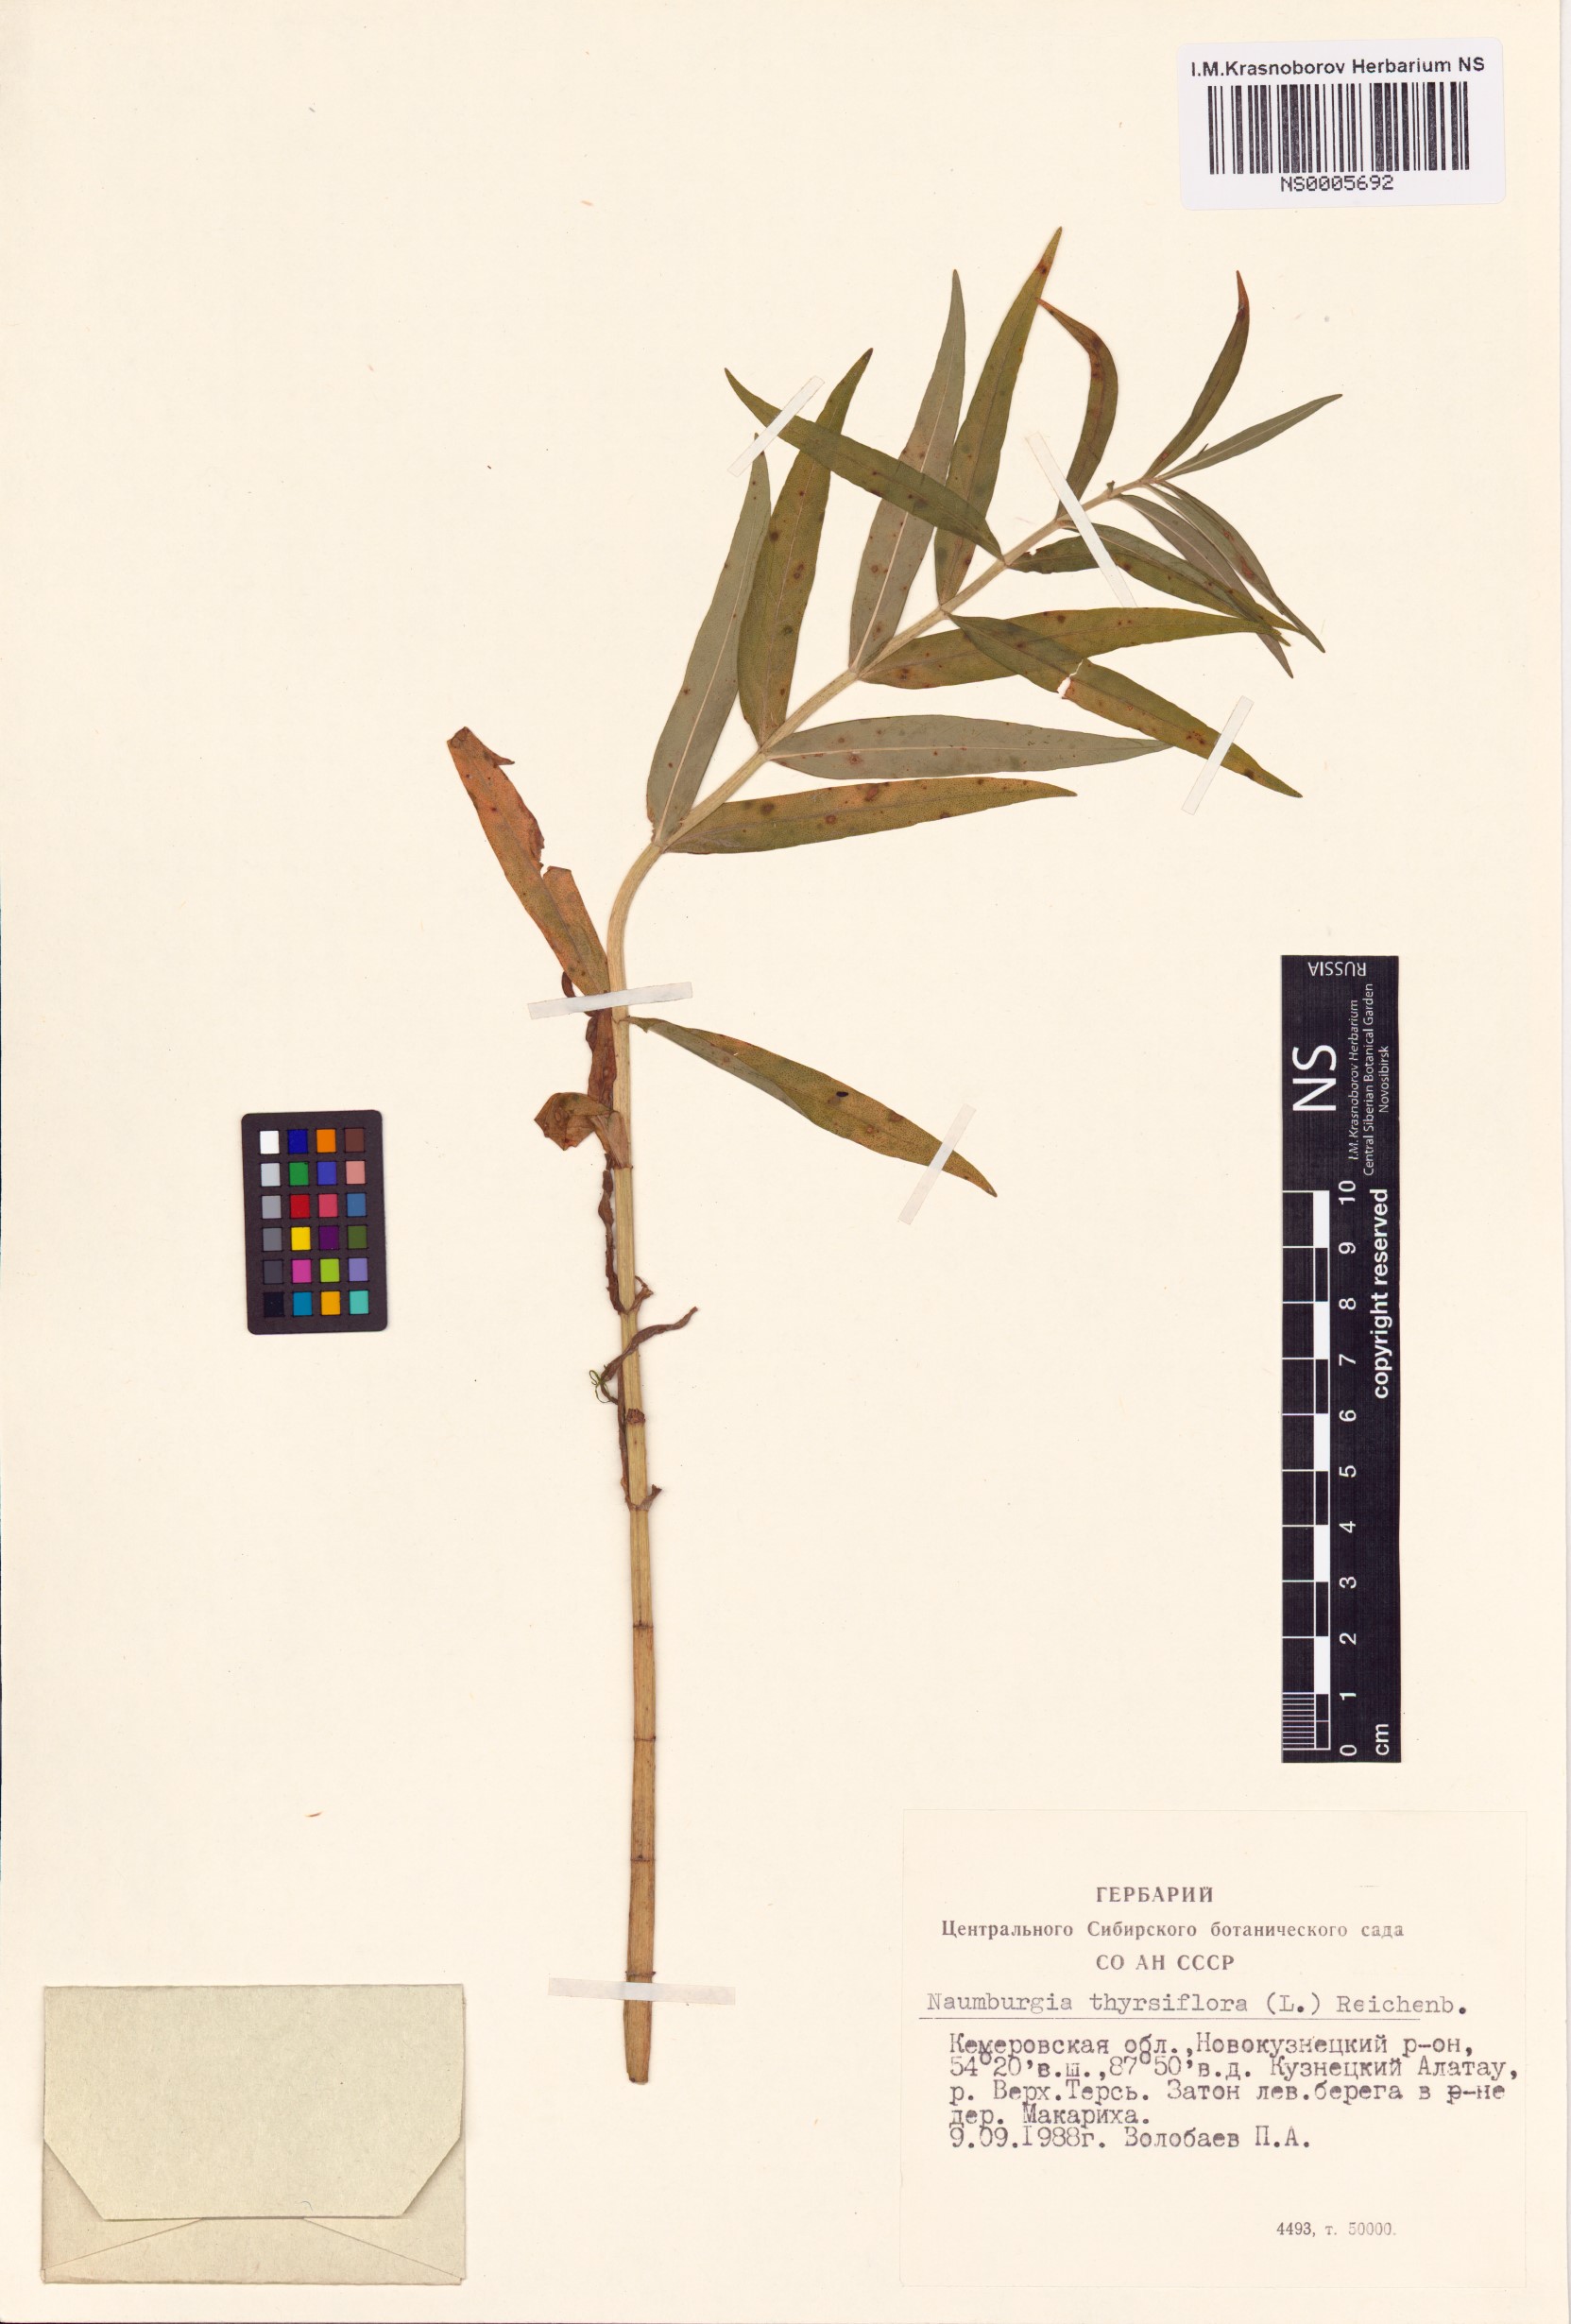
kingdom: Plantae
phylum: Tracheophyta
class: Magnoliopsida
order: Ericales
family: Primulaceae
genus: Lysimachia
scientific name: Lysimachia thyrsiflora
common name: Tufted loosestrife
